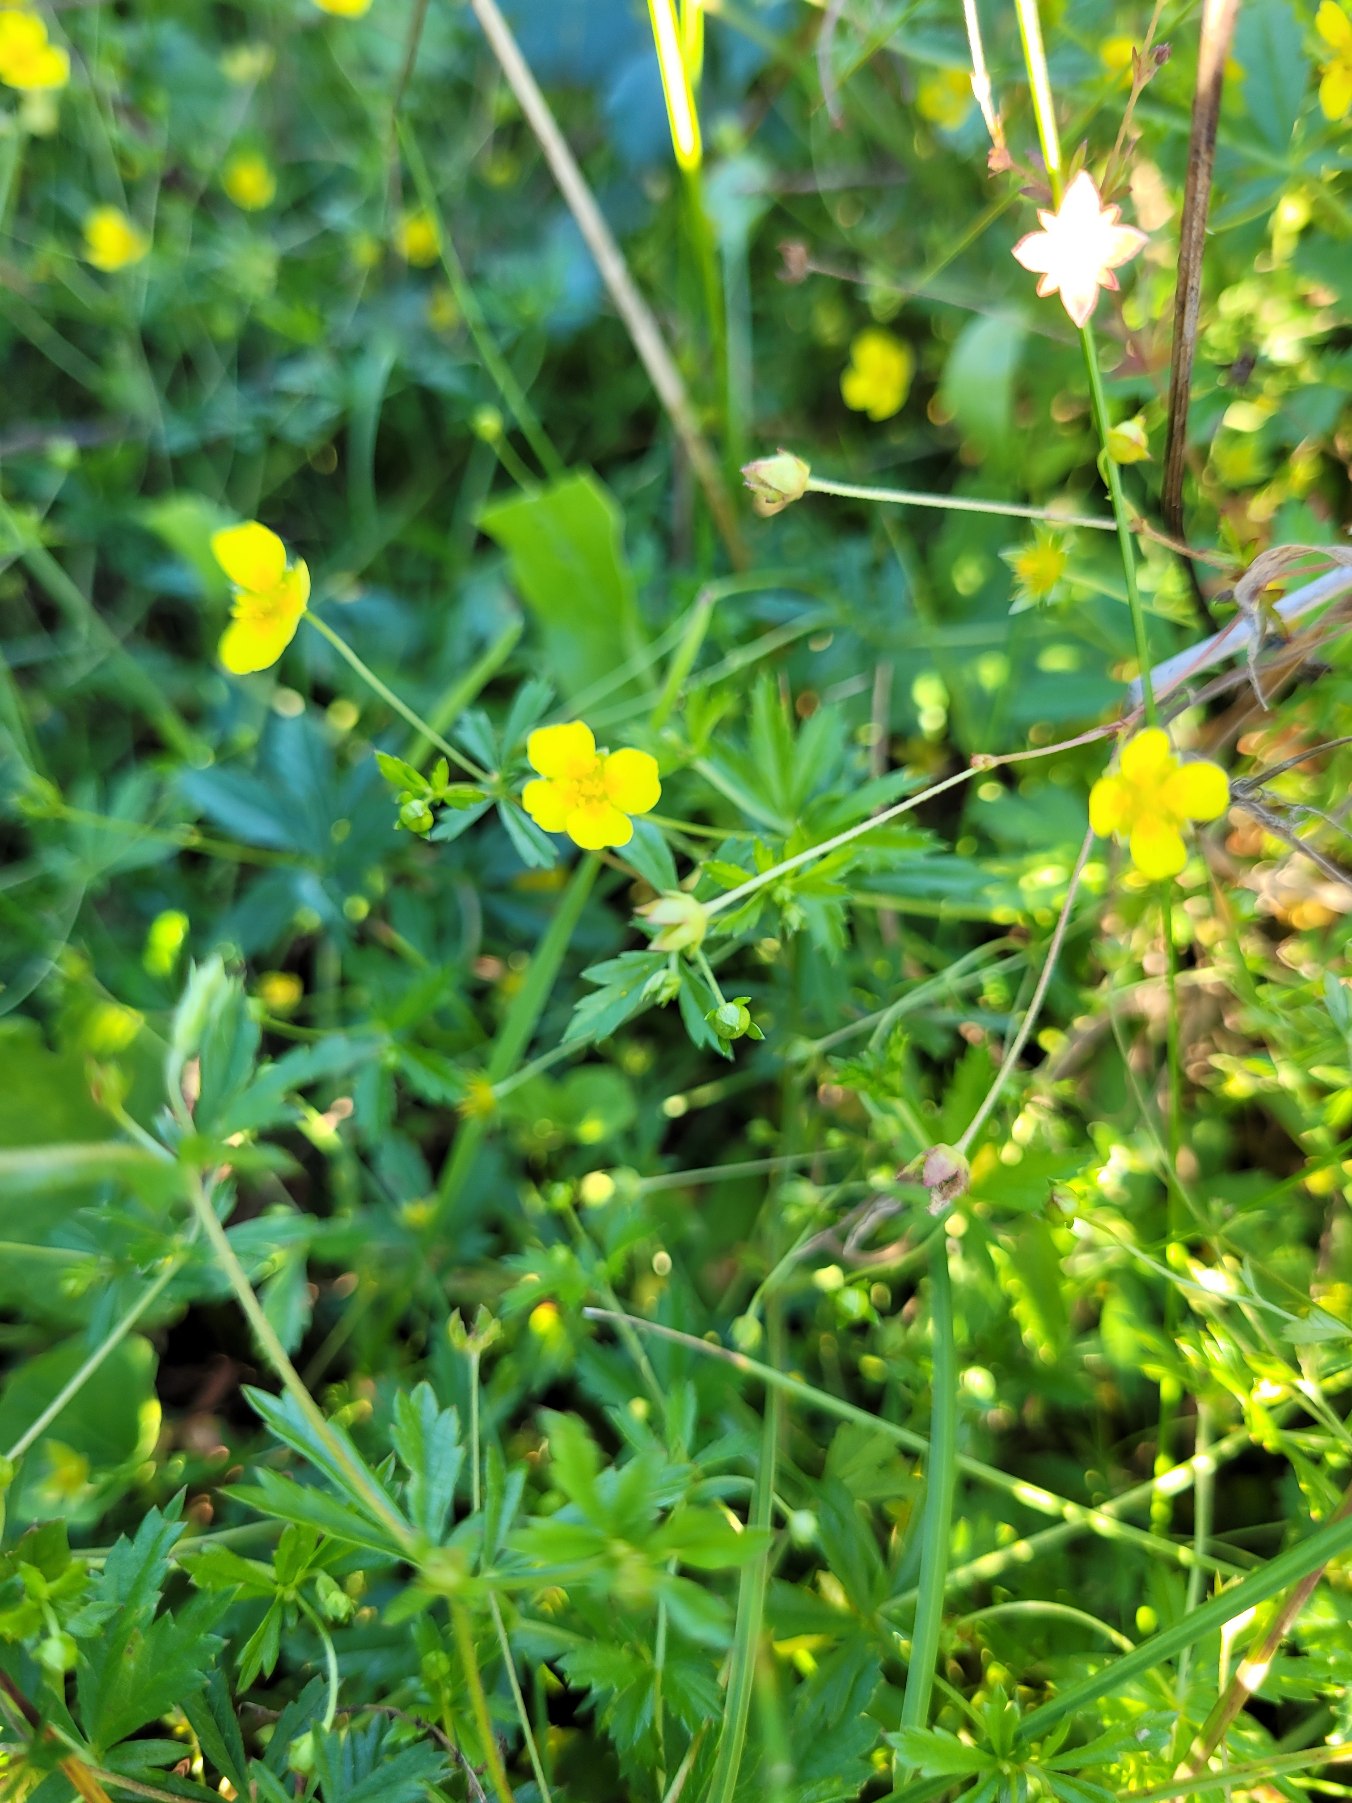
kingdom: Plantae
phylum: Tracheophyta
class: Magnoliopsida
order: Rosales
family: Rosaceae
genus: Potentilla
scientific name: Potentilla erecta
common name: Tormentil
